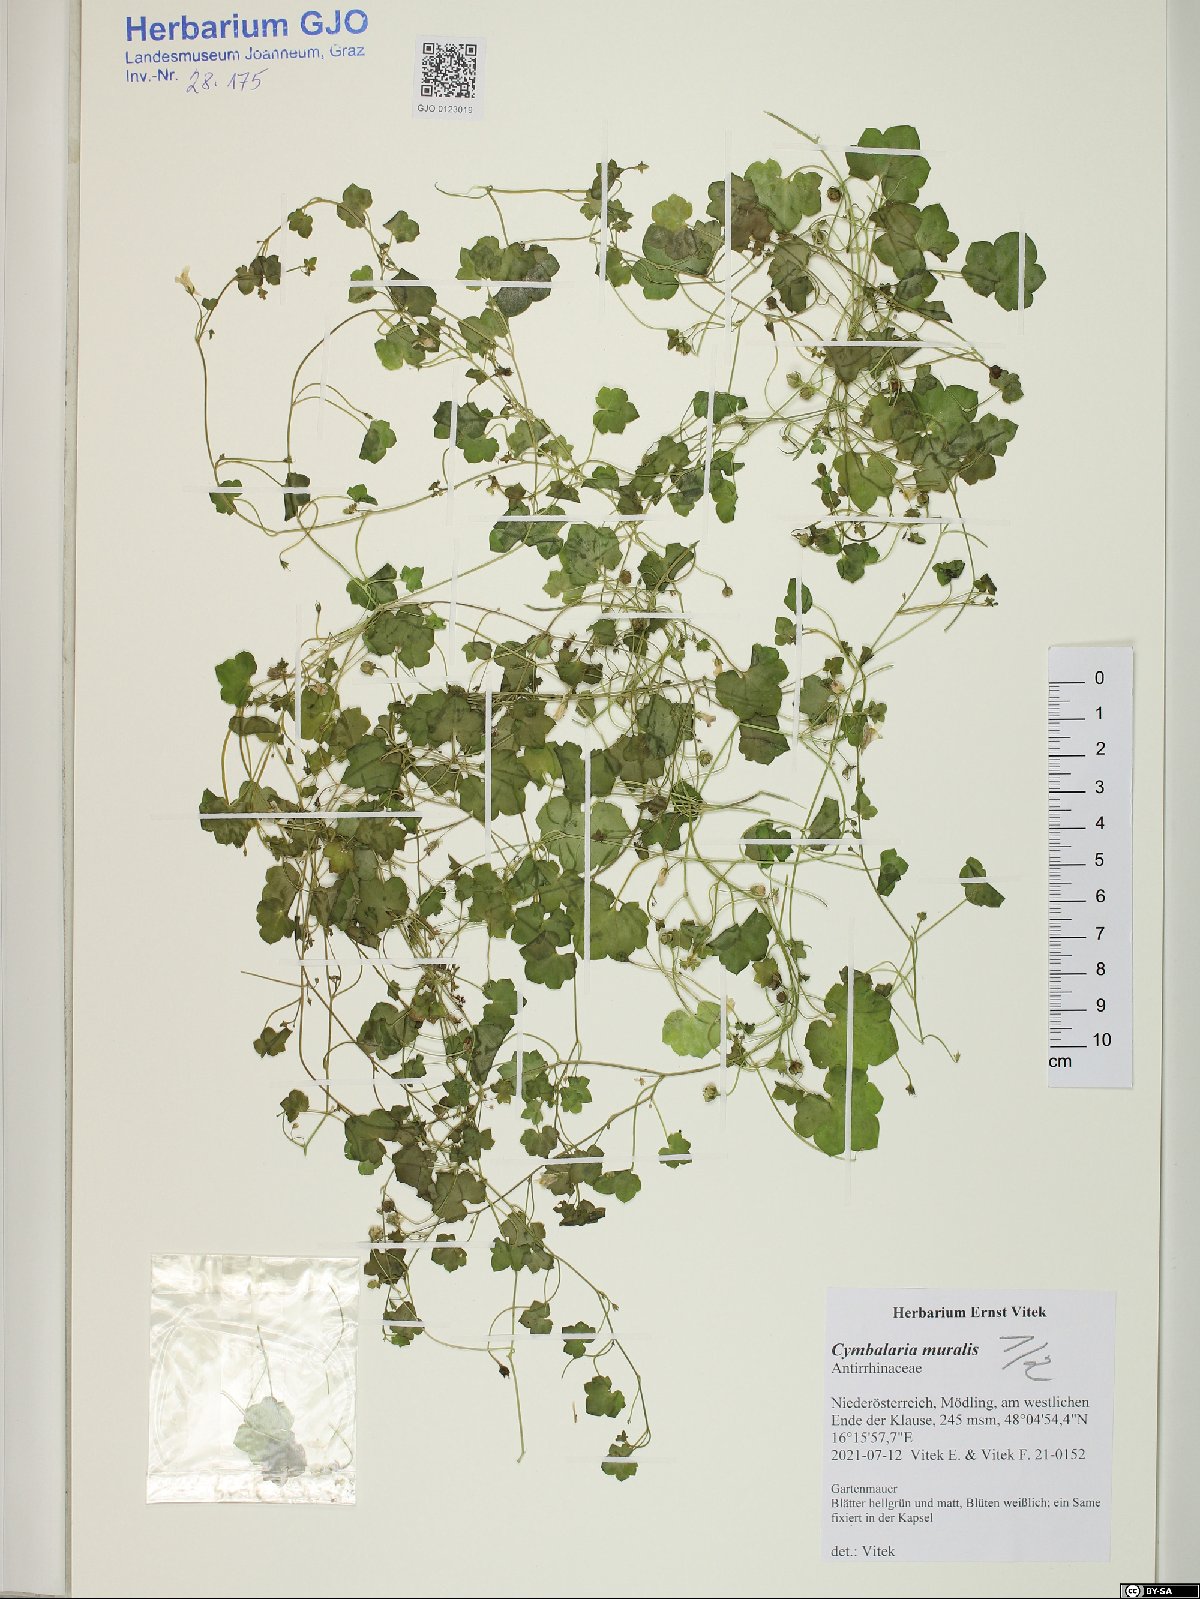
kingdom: Plantae
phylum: Tracheophyta
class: Magnoliopsida
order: Lamiales
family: Plantaginaceae
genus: Cymbalaria
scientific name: Cymbalaria muralis
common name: Ivy-leaved toadflax
